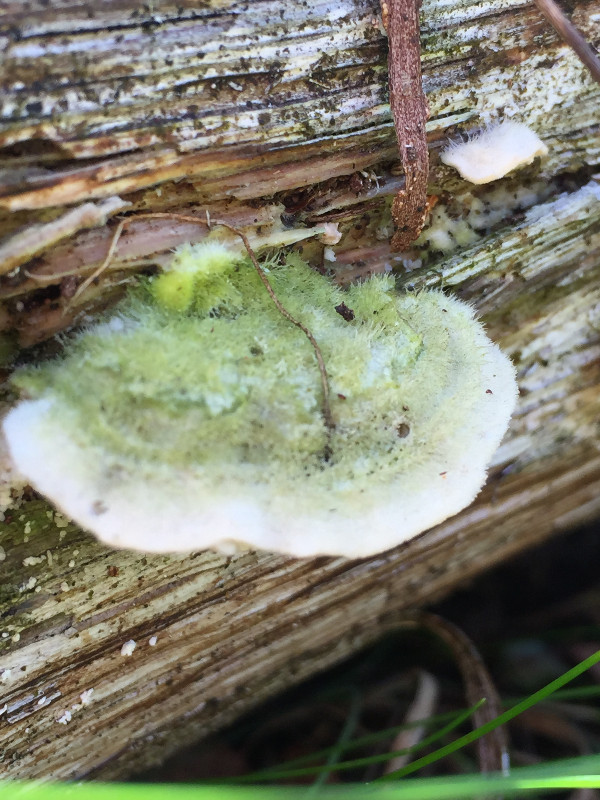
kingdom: Fungi
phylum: Basidiomycota
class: Agaricomycetes
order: Polyporales
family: Polyporaceae
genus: Trametes
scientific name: Trametes hirsuta
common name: håret læderporesvamp
